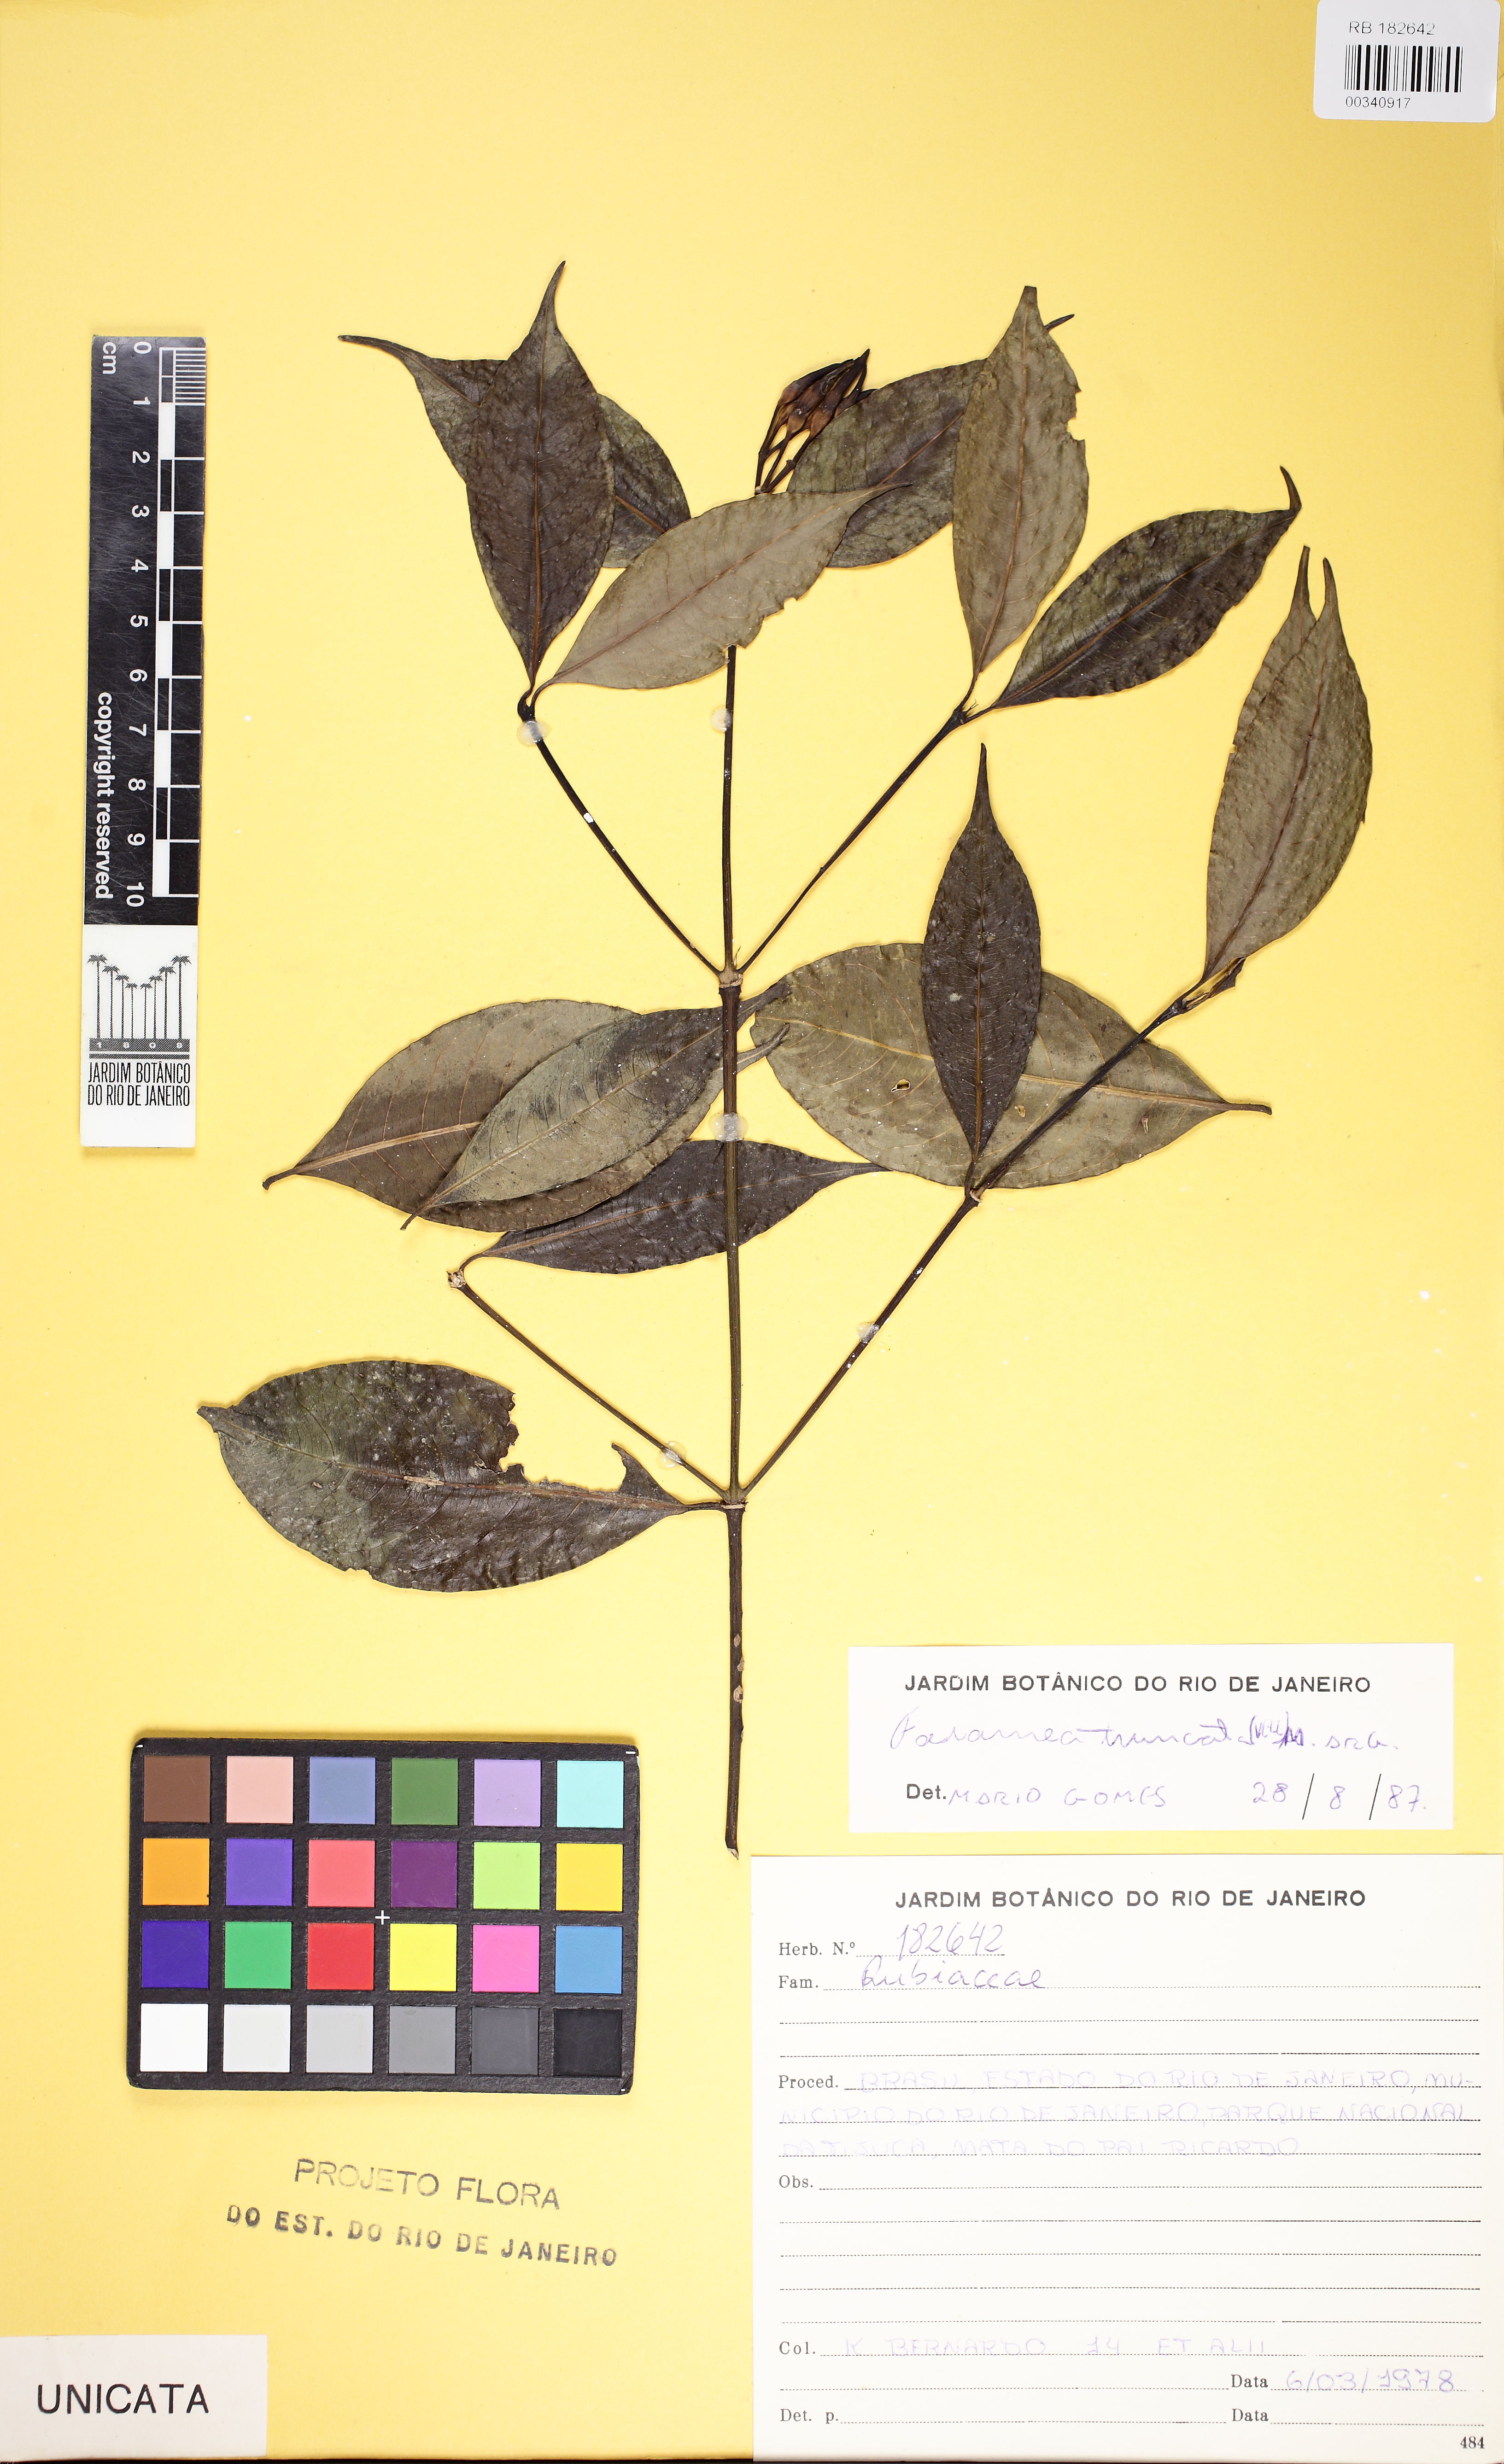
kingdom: Plantae
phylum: Tracheophyta
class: Magnoliopsida
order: Gentianales
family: Rubiaceae
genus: Faramea
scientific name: Faramea caudata
